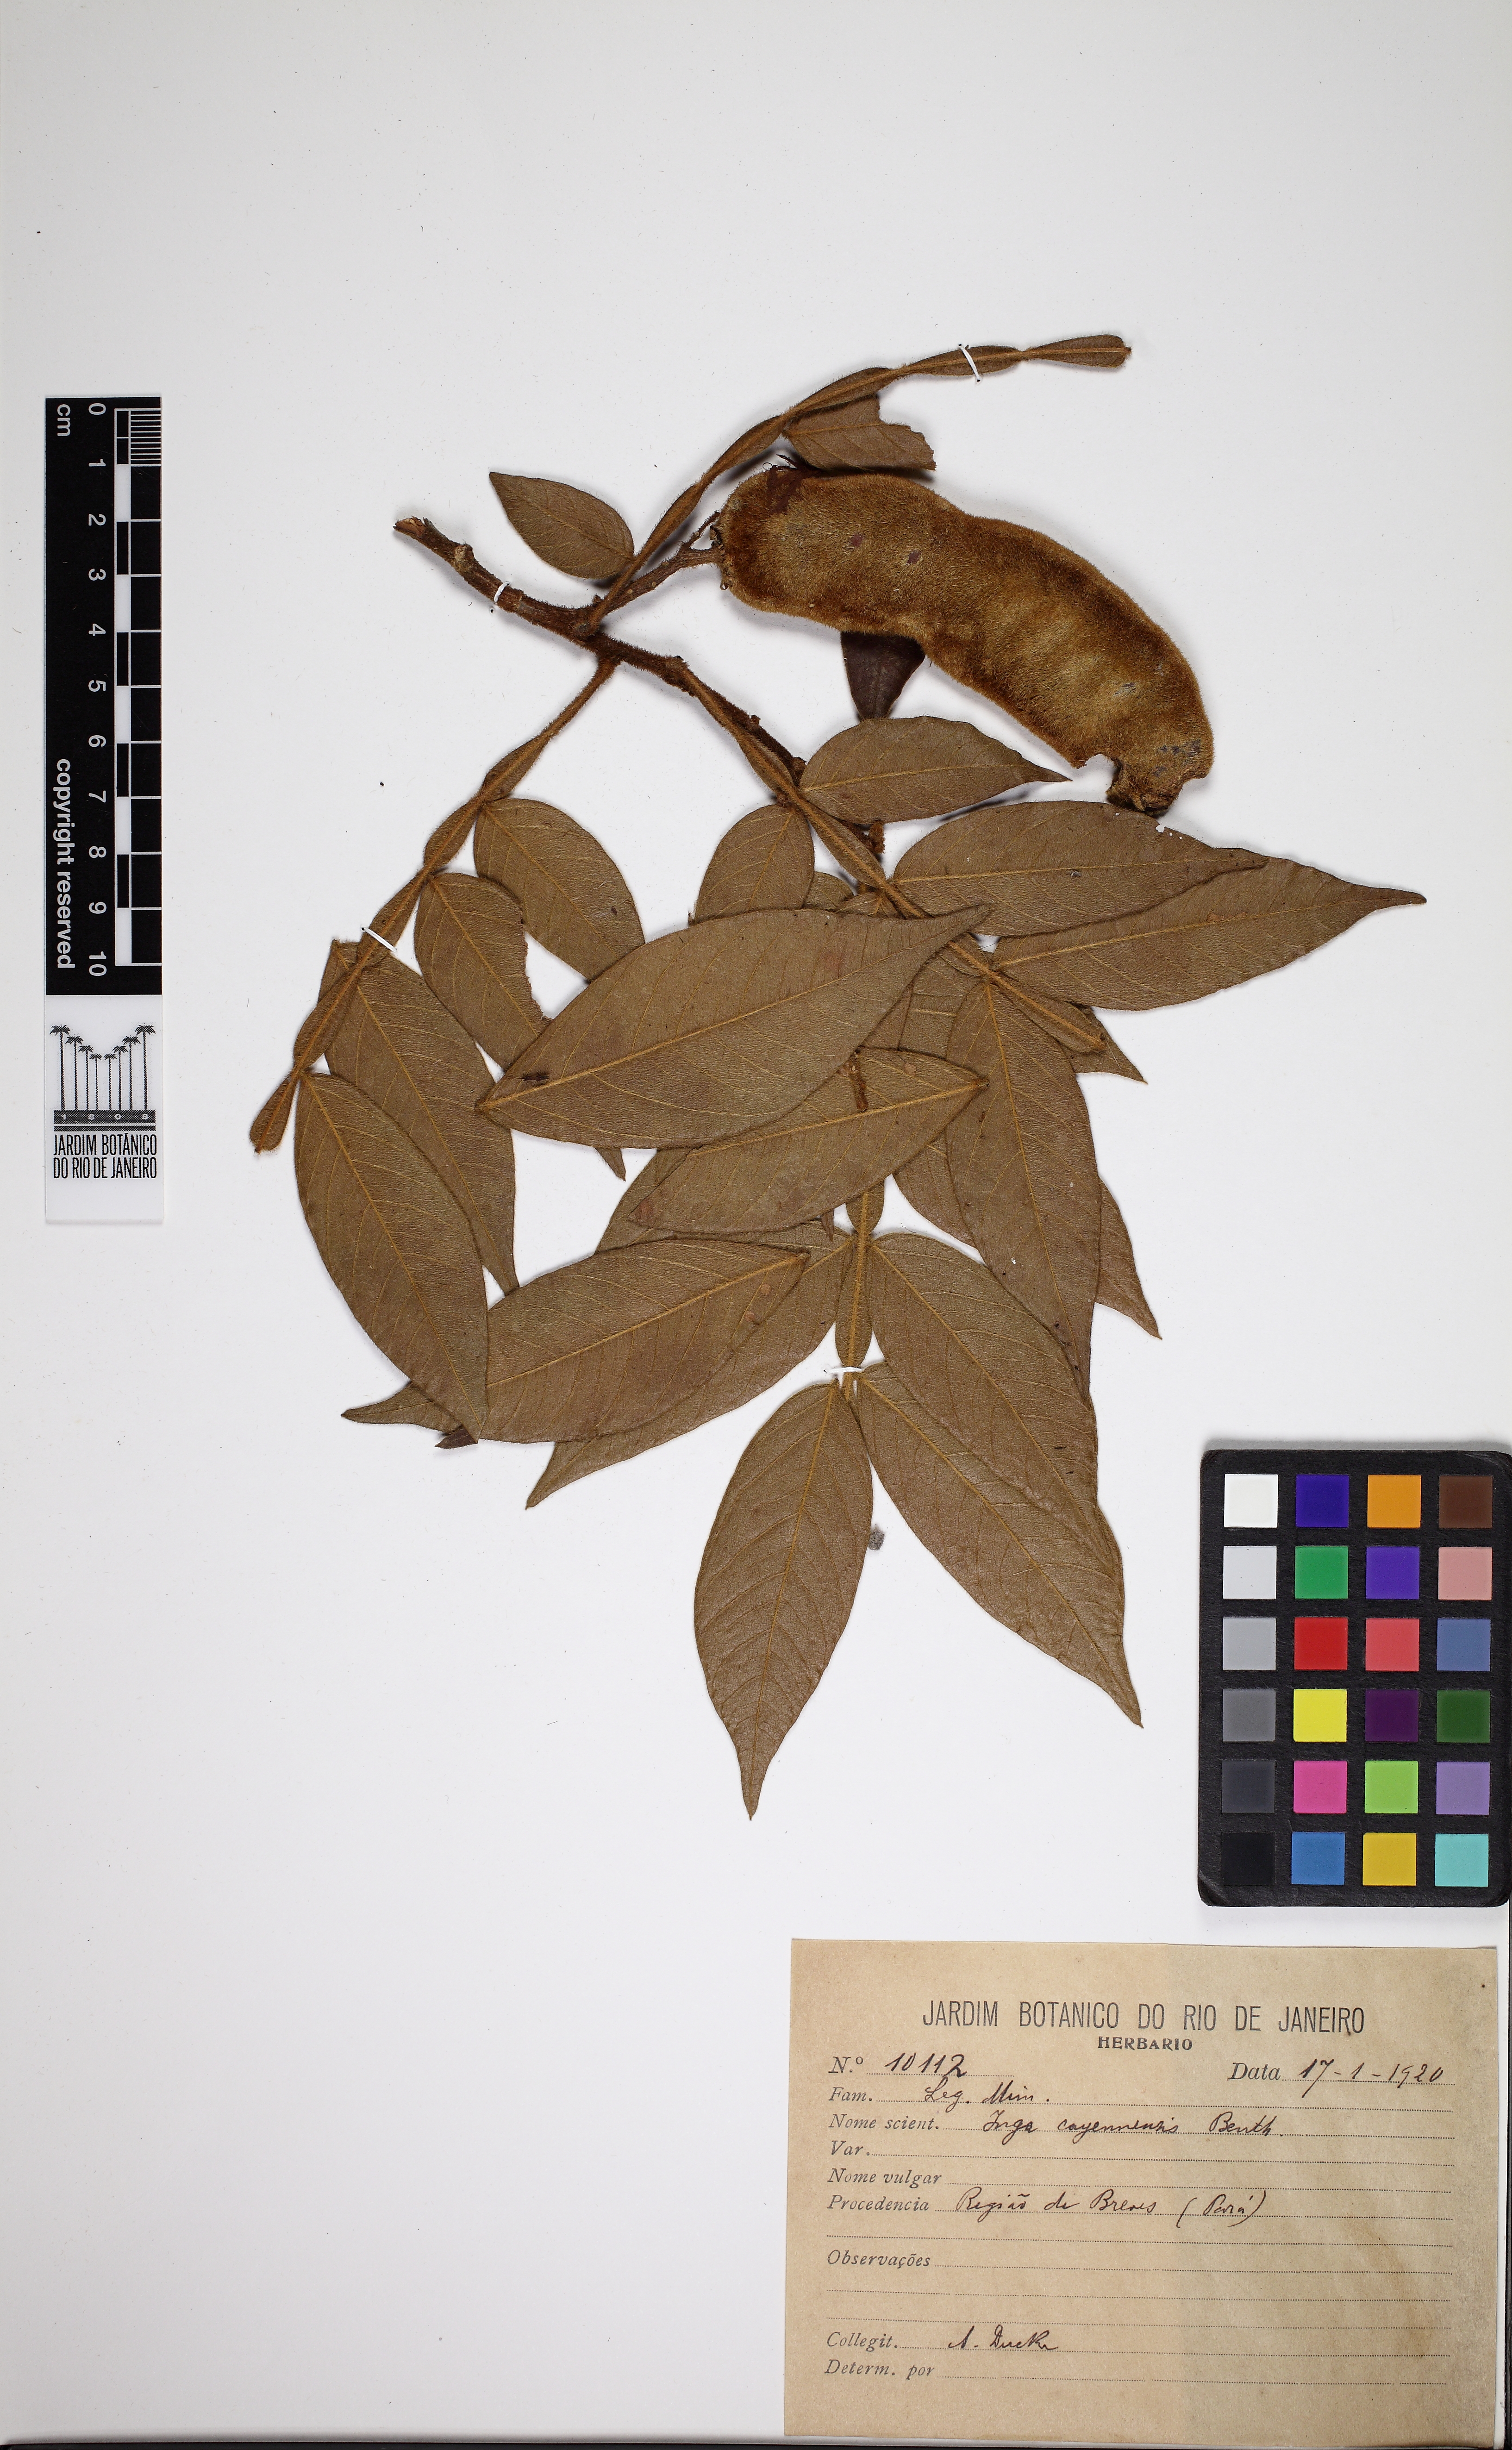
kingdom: Plantae
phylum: Tracheophyta
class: Magnoliopsida
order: Fabales
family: Fabaceae
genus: Inga
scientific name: Inga cayennensis
